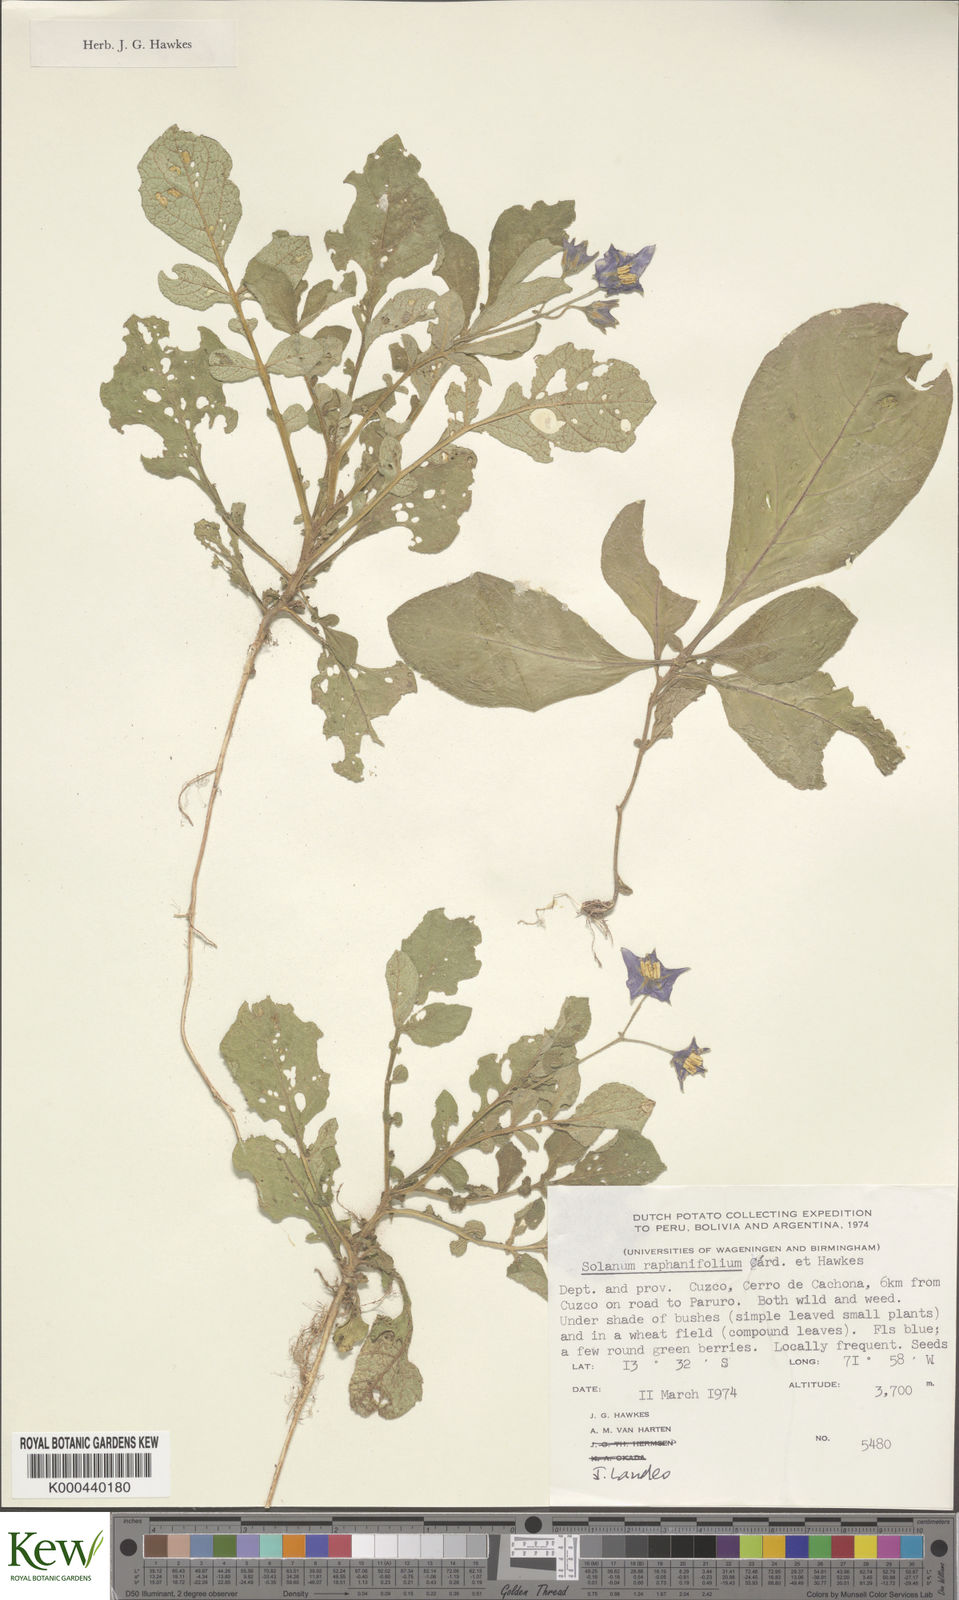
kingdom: Plantae
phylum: Tracheophyta
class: Magnoliopsida
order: Solanales
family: Solanaceae
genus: Solanum
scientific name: Solanum raphanifolium
